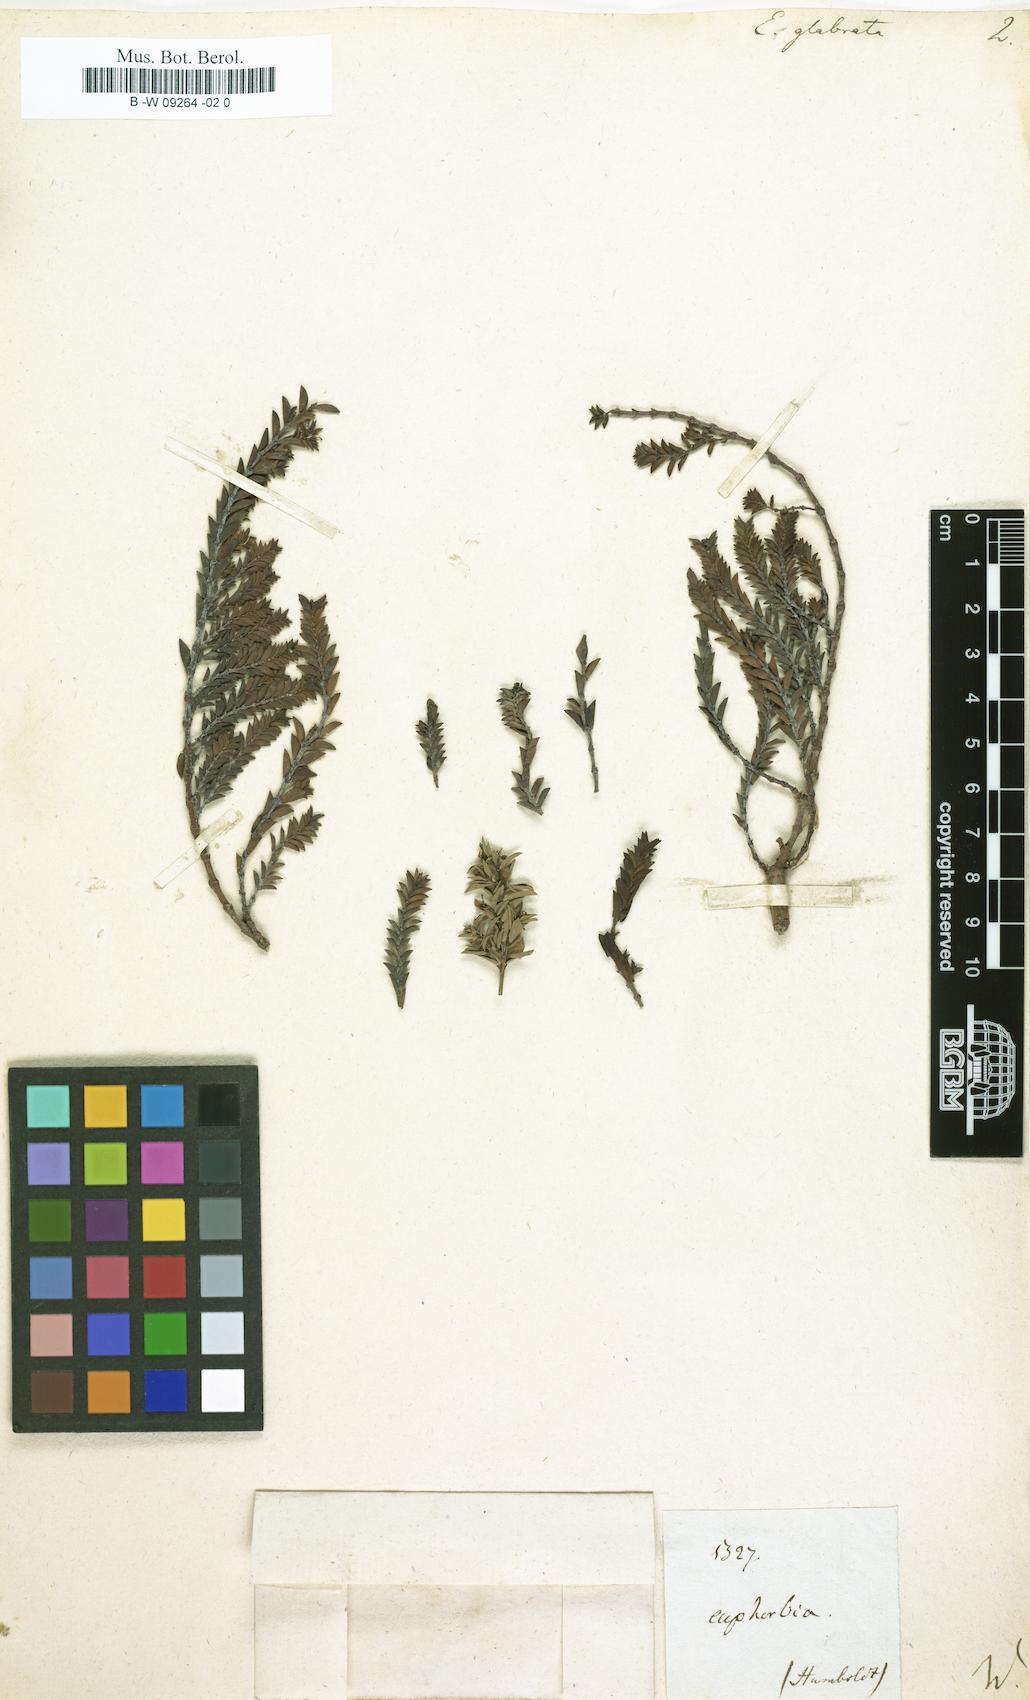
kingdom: Plantae
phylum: Tracheophyta
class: Magnoliopsida
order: Malpighiales
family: Euphorbiaceae
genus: Euphorbia
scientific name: Euphorbia mesembryanthemifolia
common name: Coastal beach sandmat
